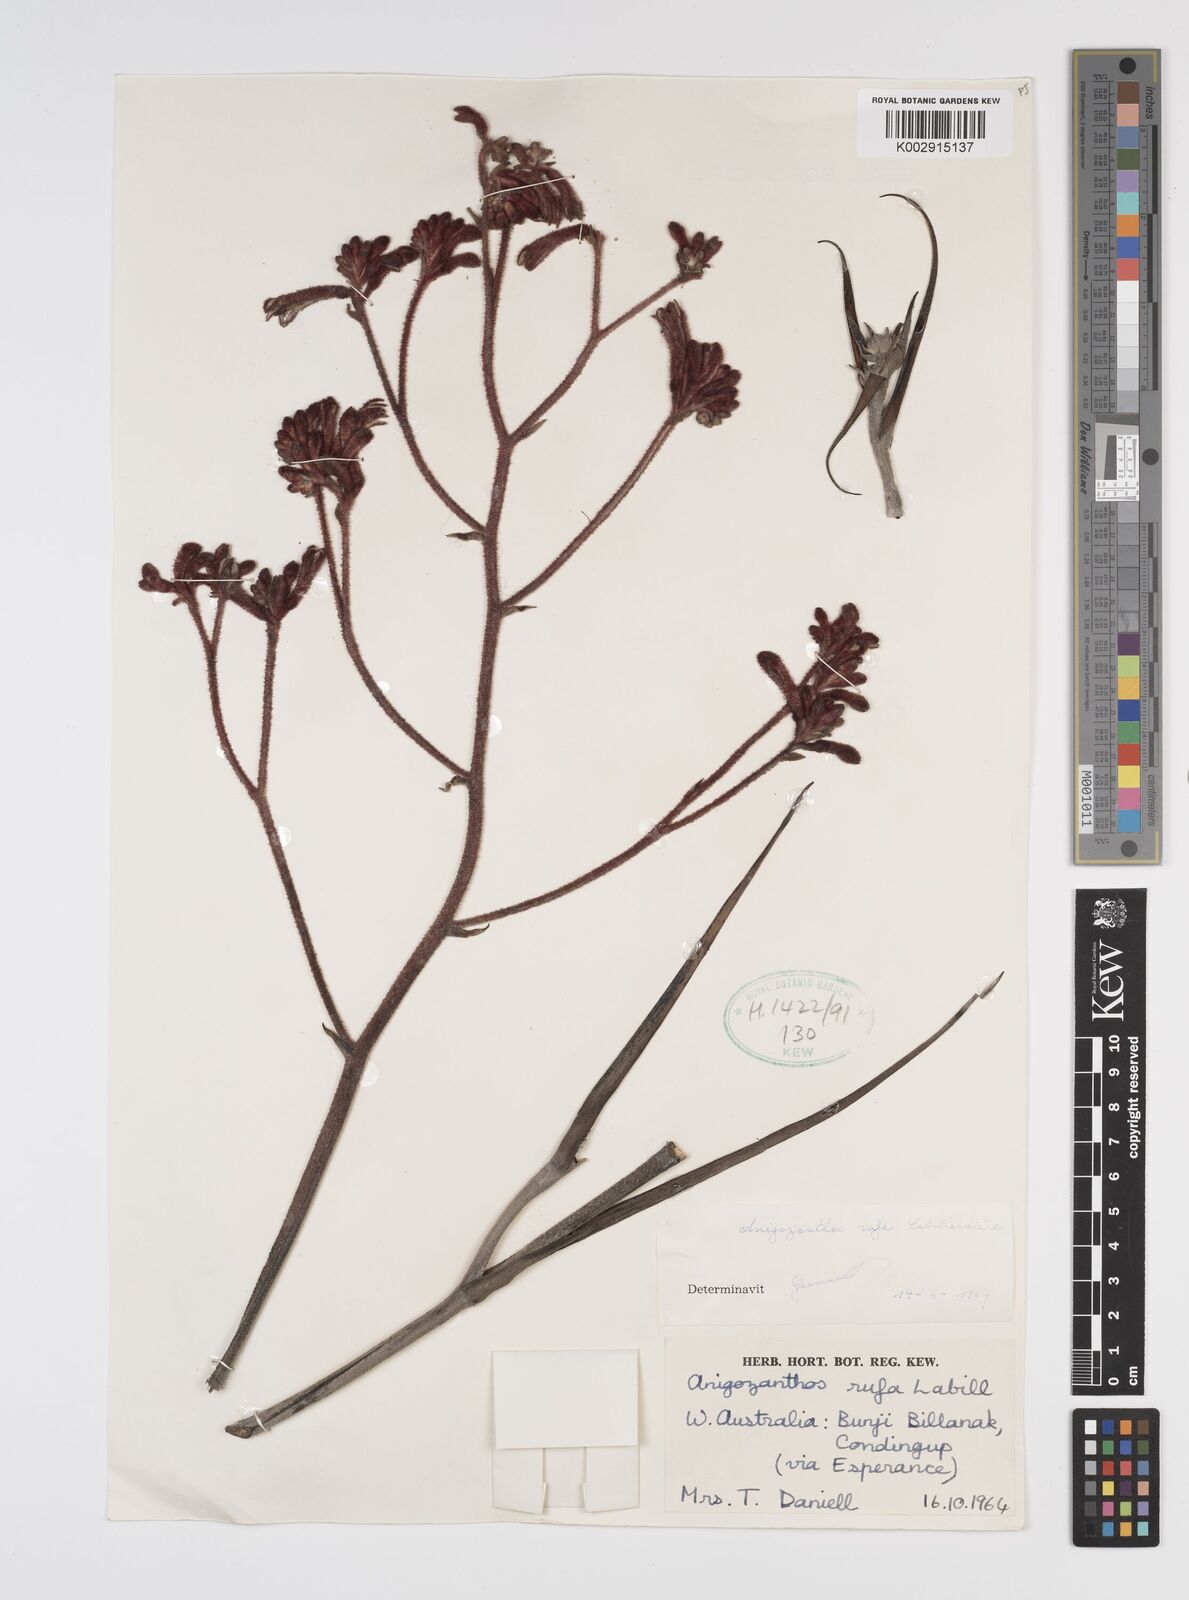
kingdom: Plantae
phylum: Tracheophyta
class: Liliopsida
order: Commelinales
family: Haemodoraceae
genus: Anigozanthos
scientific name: Anigozanthos rufus
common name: Red kangaroo-paw
